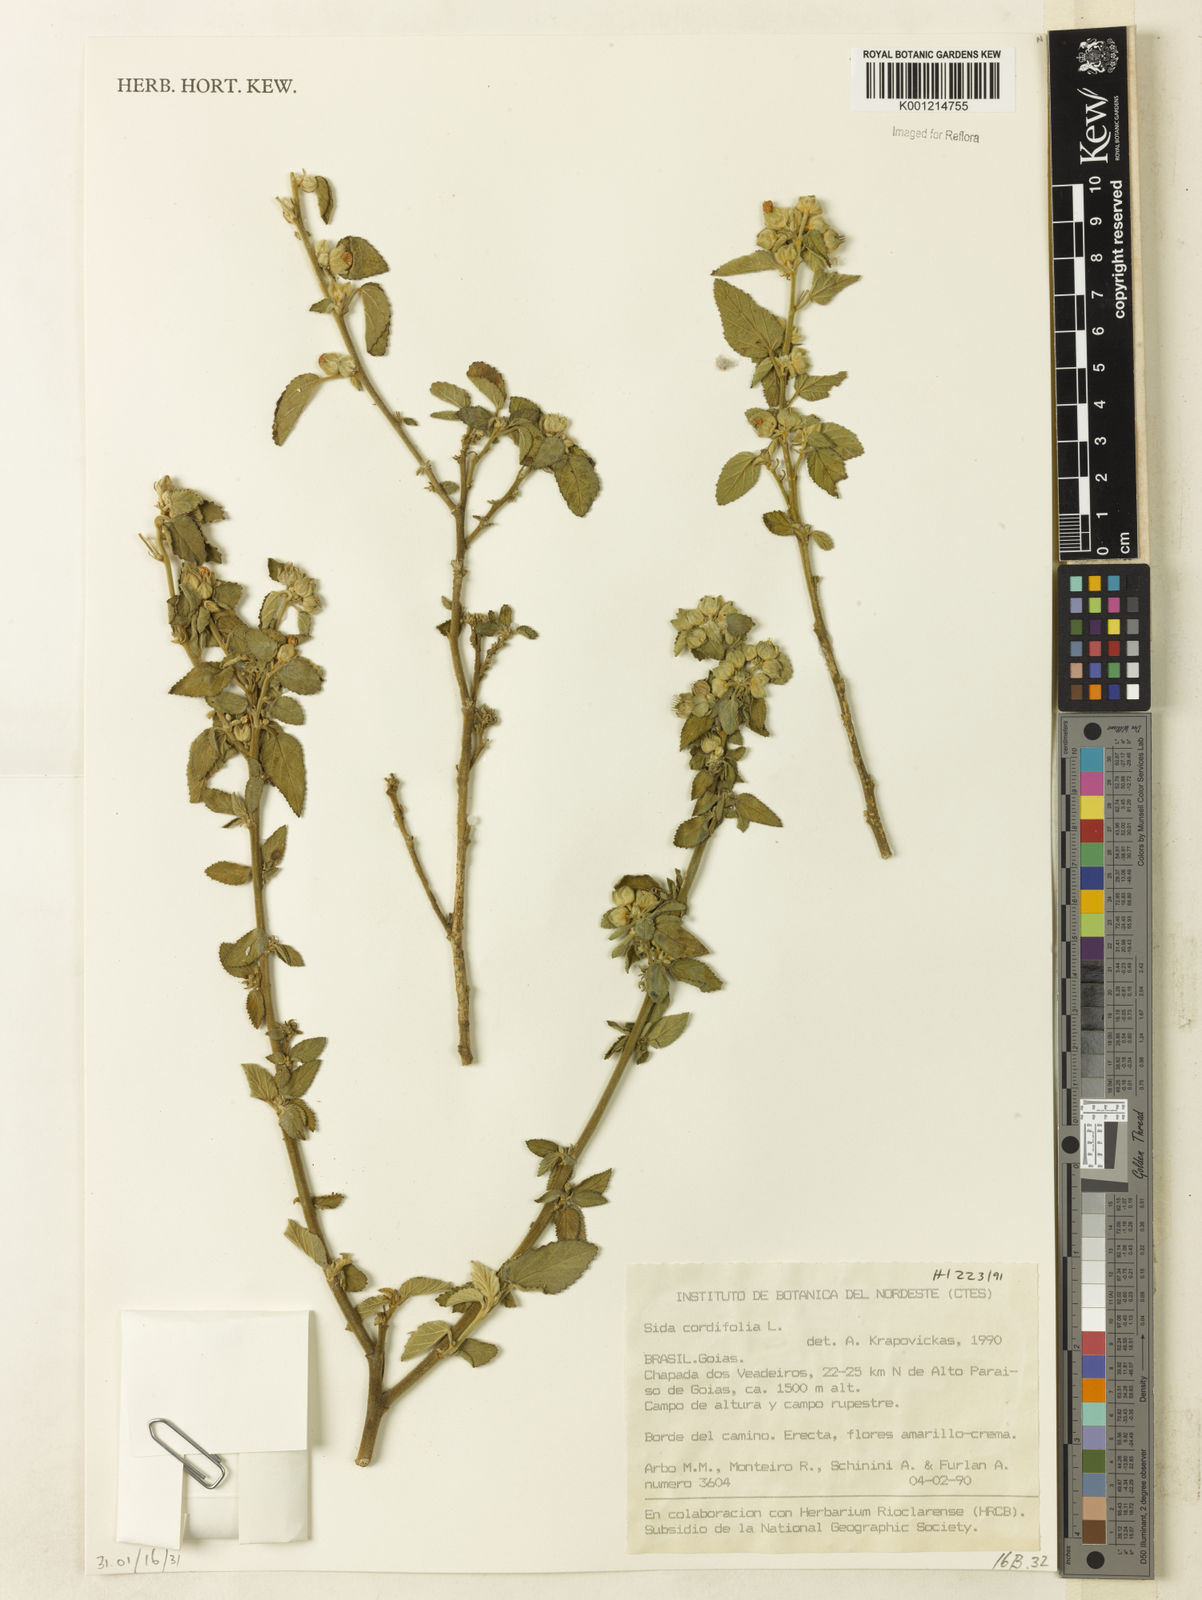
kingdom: Plantae
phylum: Tracheophyta
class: Magnoliopsida
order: Malvales
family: Malvaceae
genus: Sida
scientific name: Sida cordifolia
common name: Ilima
